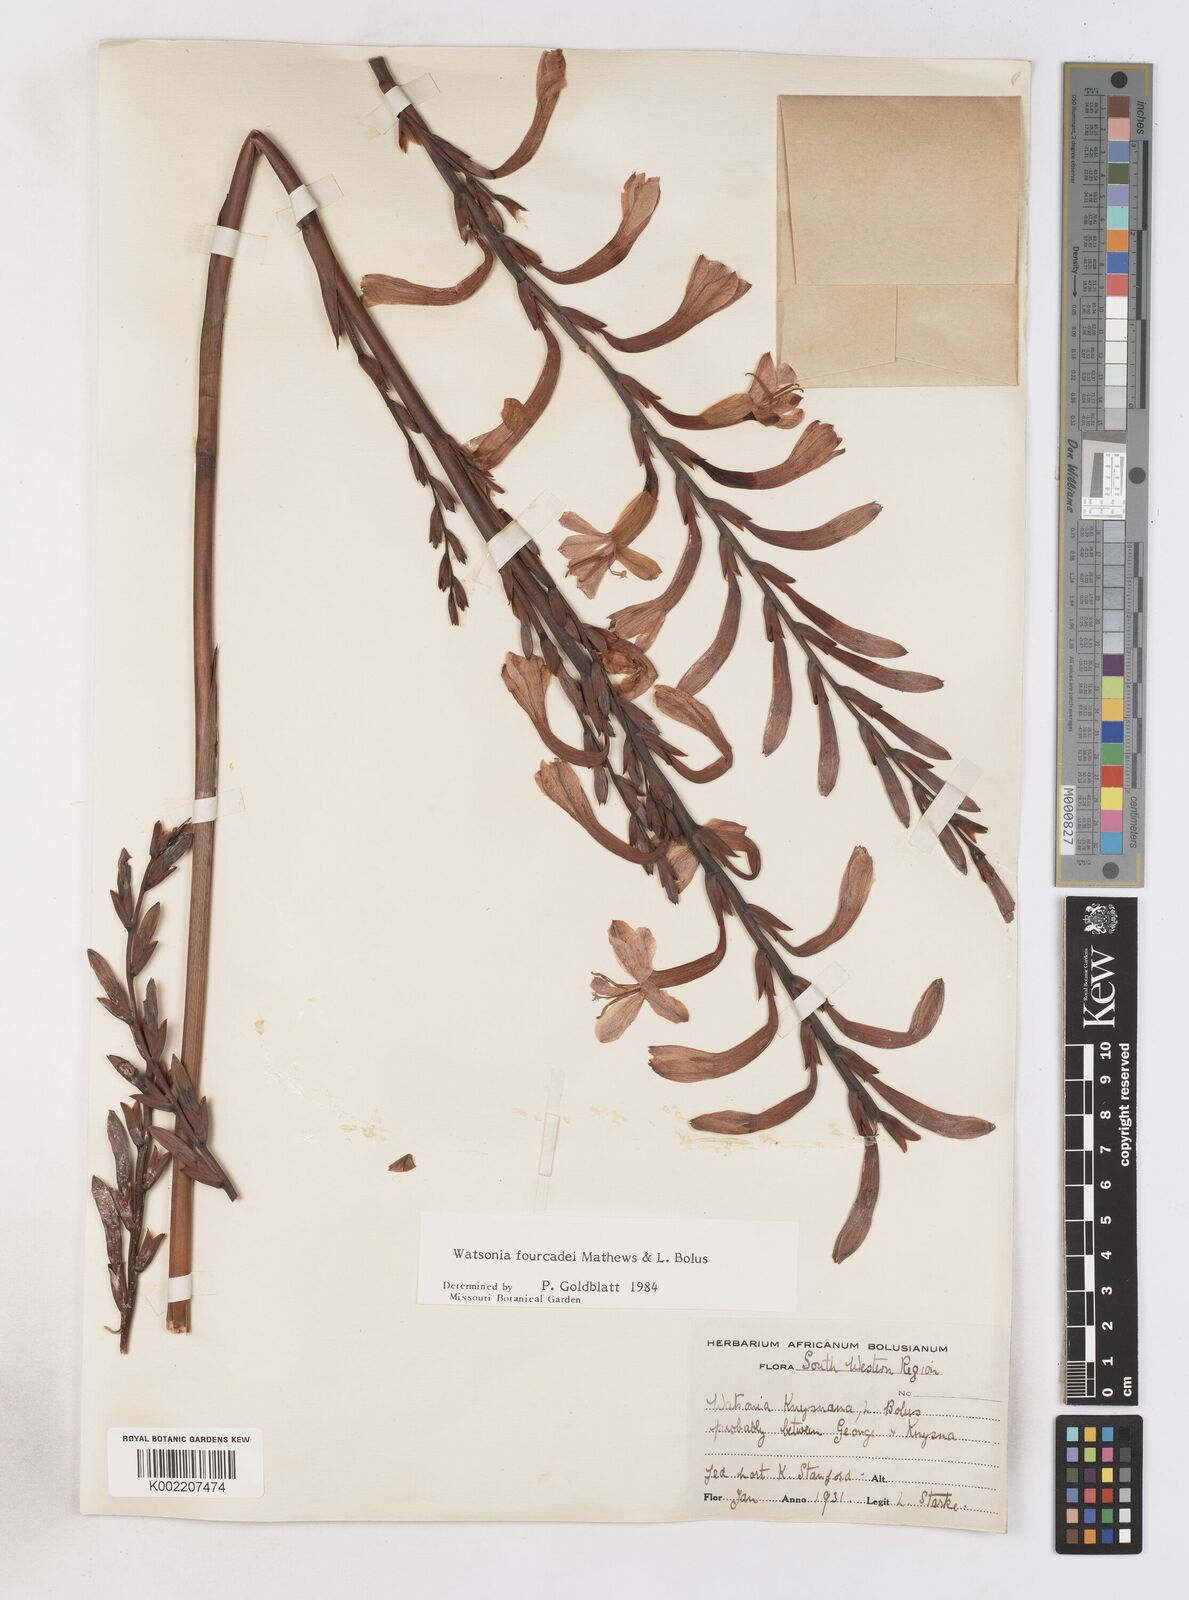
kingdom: Plantae
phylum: Tracheophyta
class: Liliopsida
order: Asparagales
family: Iridaceae
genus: Watsonia
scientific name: Watsonia fourcadei
